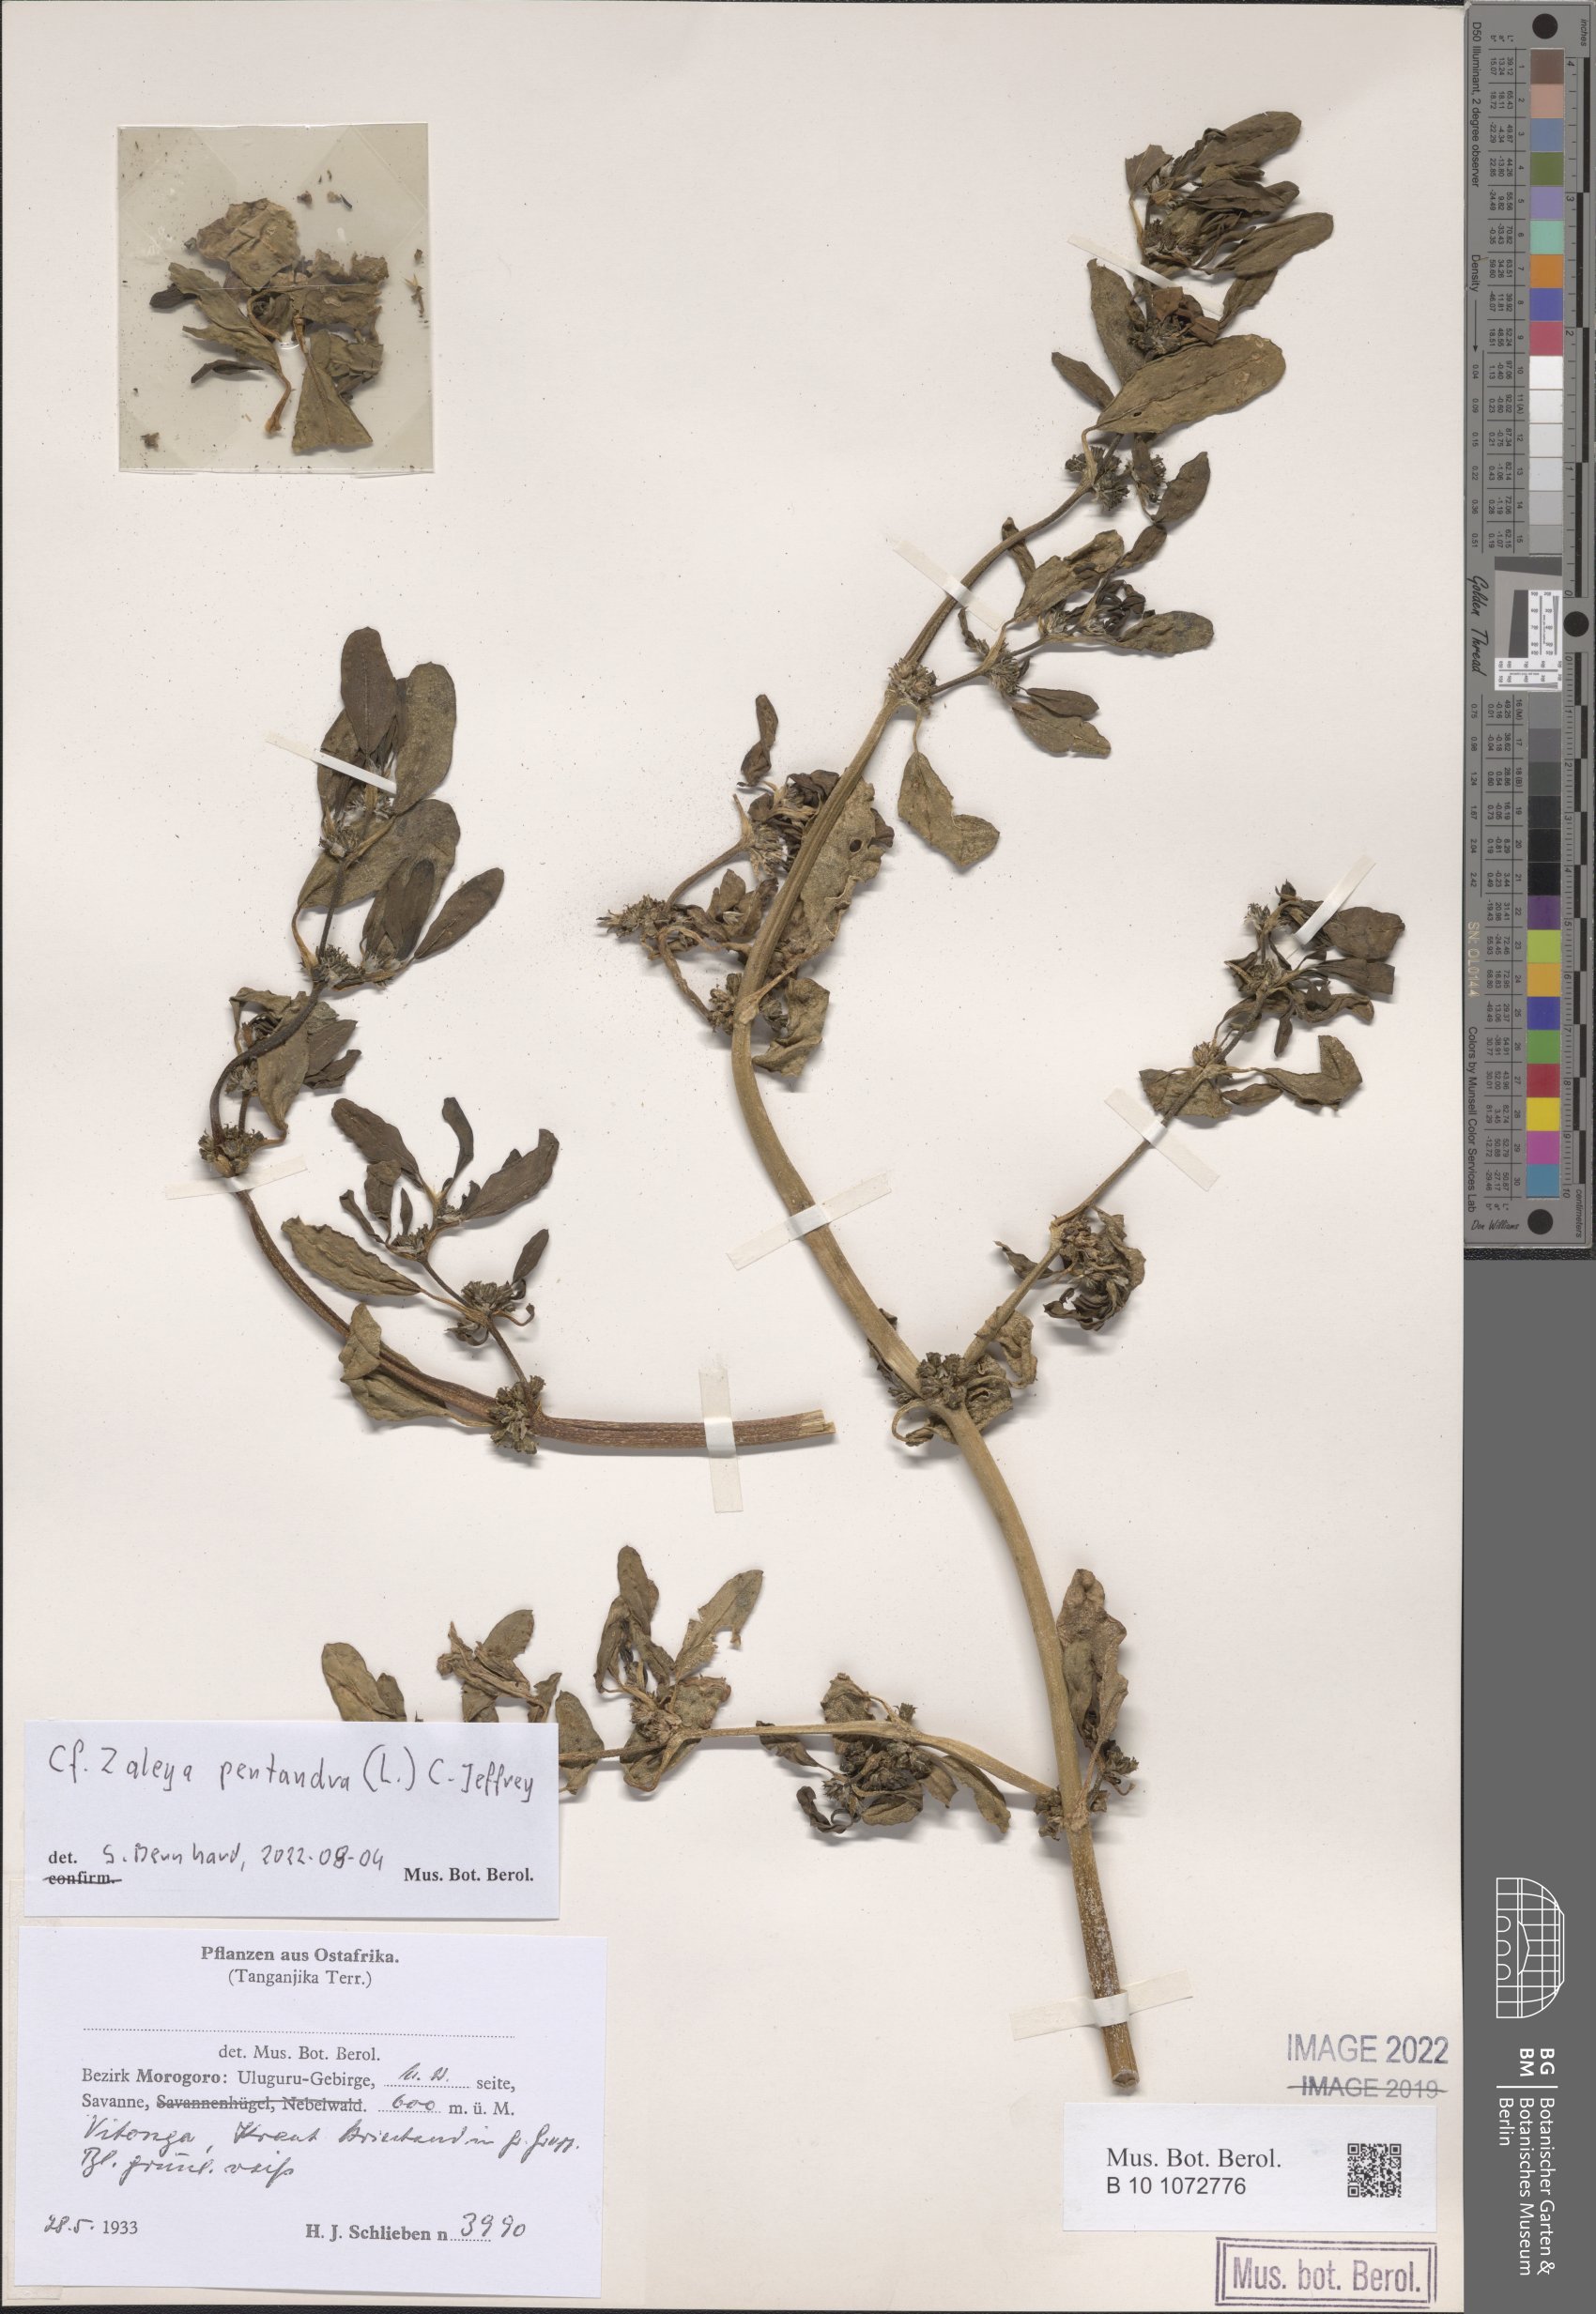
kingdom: Plantae
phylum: Tracheophyta
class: Magnoliopsida
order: Caryophyllales
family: Aizoaceae
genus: Zaleya
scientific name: Zaleya pentandra
